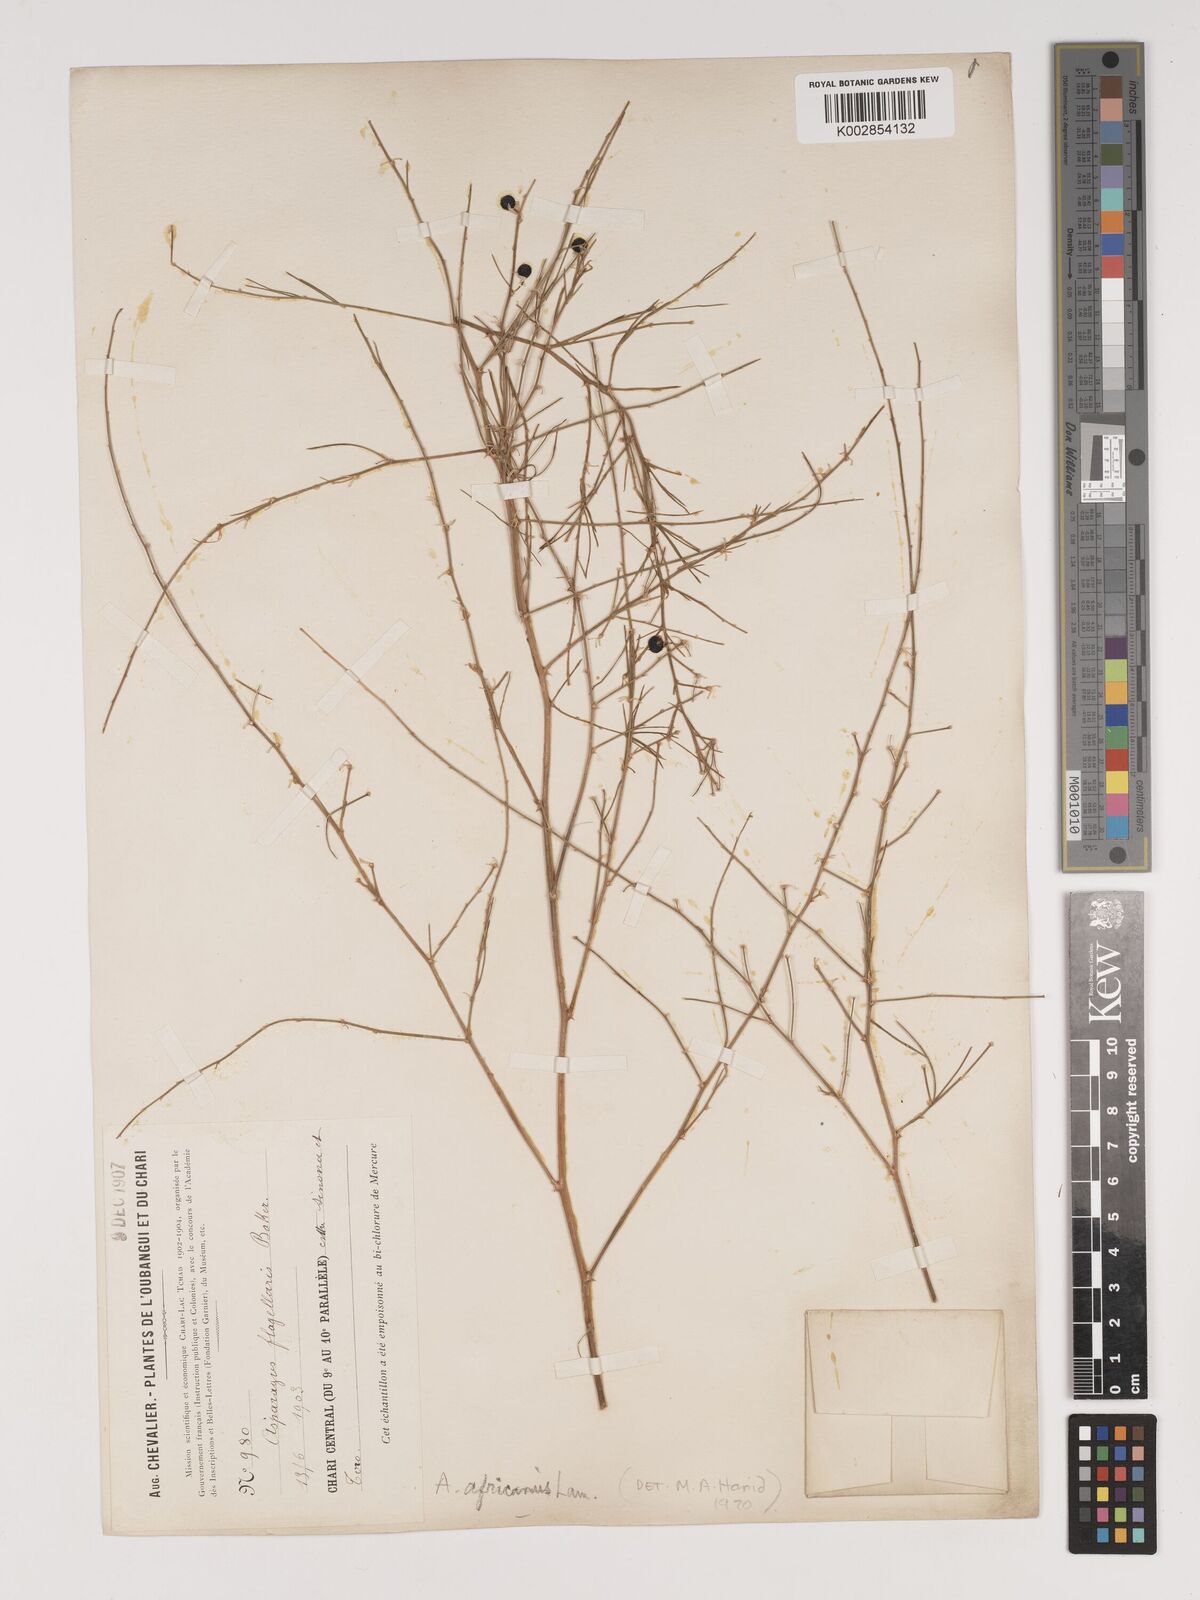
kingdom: Plantae
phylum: Tracheophyta
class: Liliopsida
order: Asparagales
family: Asparagaceae
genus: Asparagus
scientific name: Asparagus africanus
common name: Asparagus-fern
